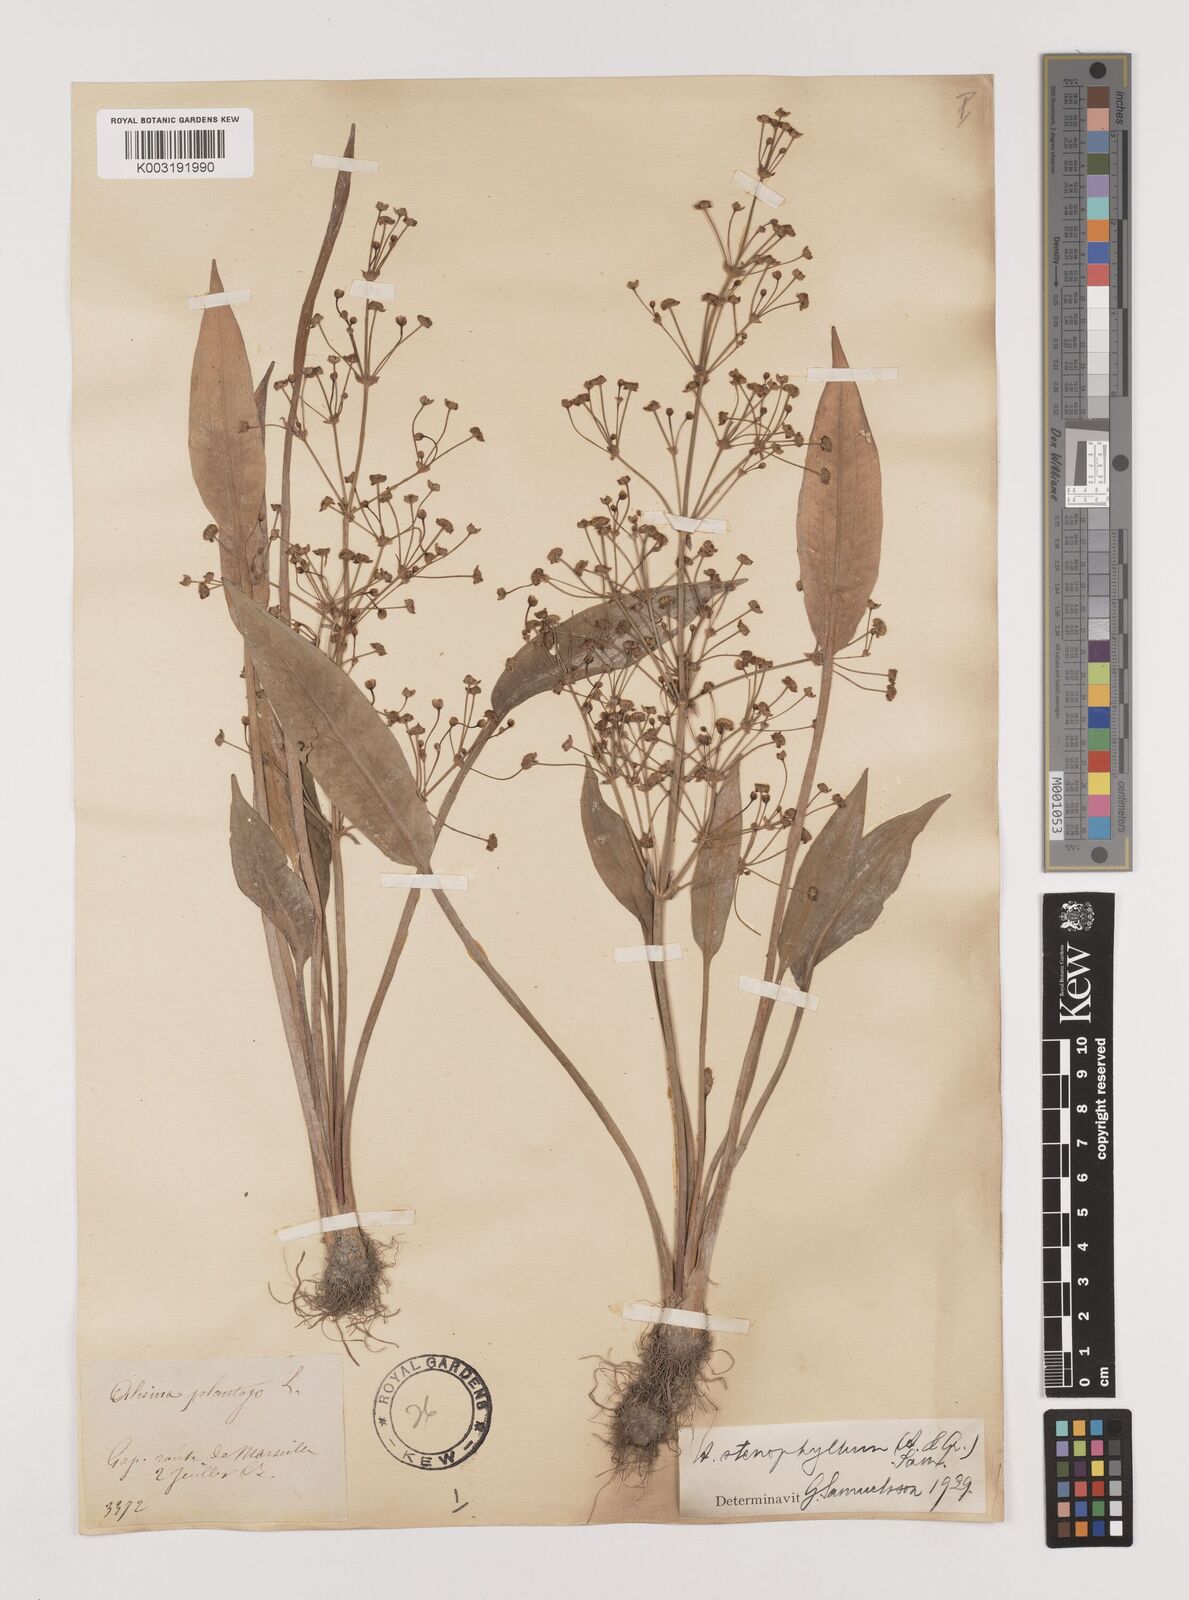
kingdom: Plantae
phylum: Tracheophyta
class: Liliopsida
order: Alismatales
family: Alismataceae
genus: Alisma
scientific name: Alisma lanceolatum
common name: Narrow-leaved water-plantain
